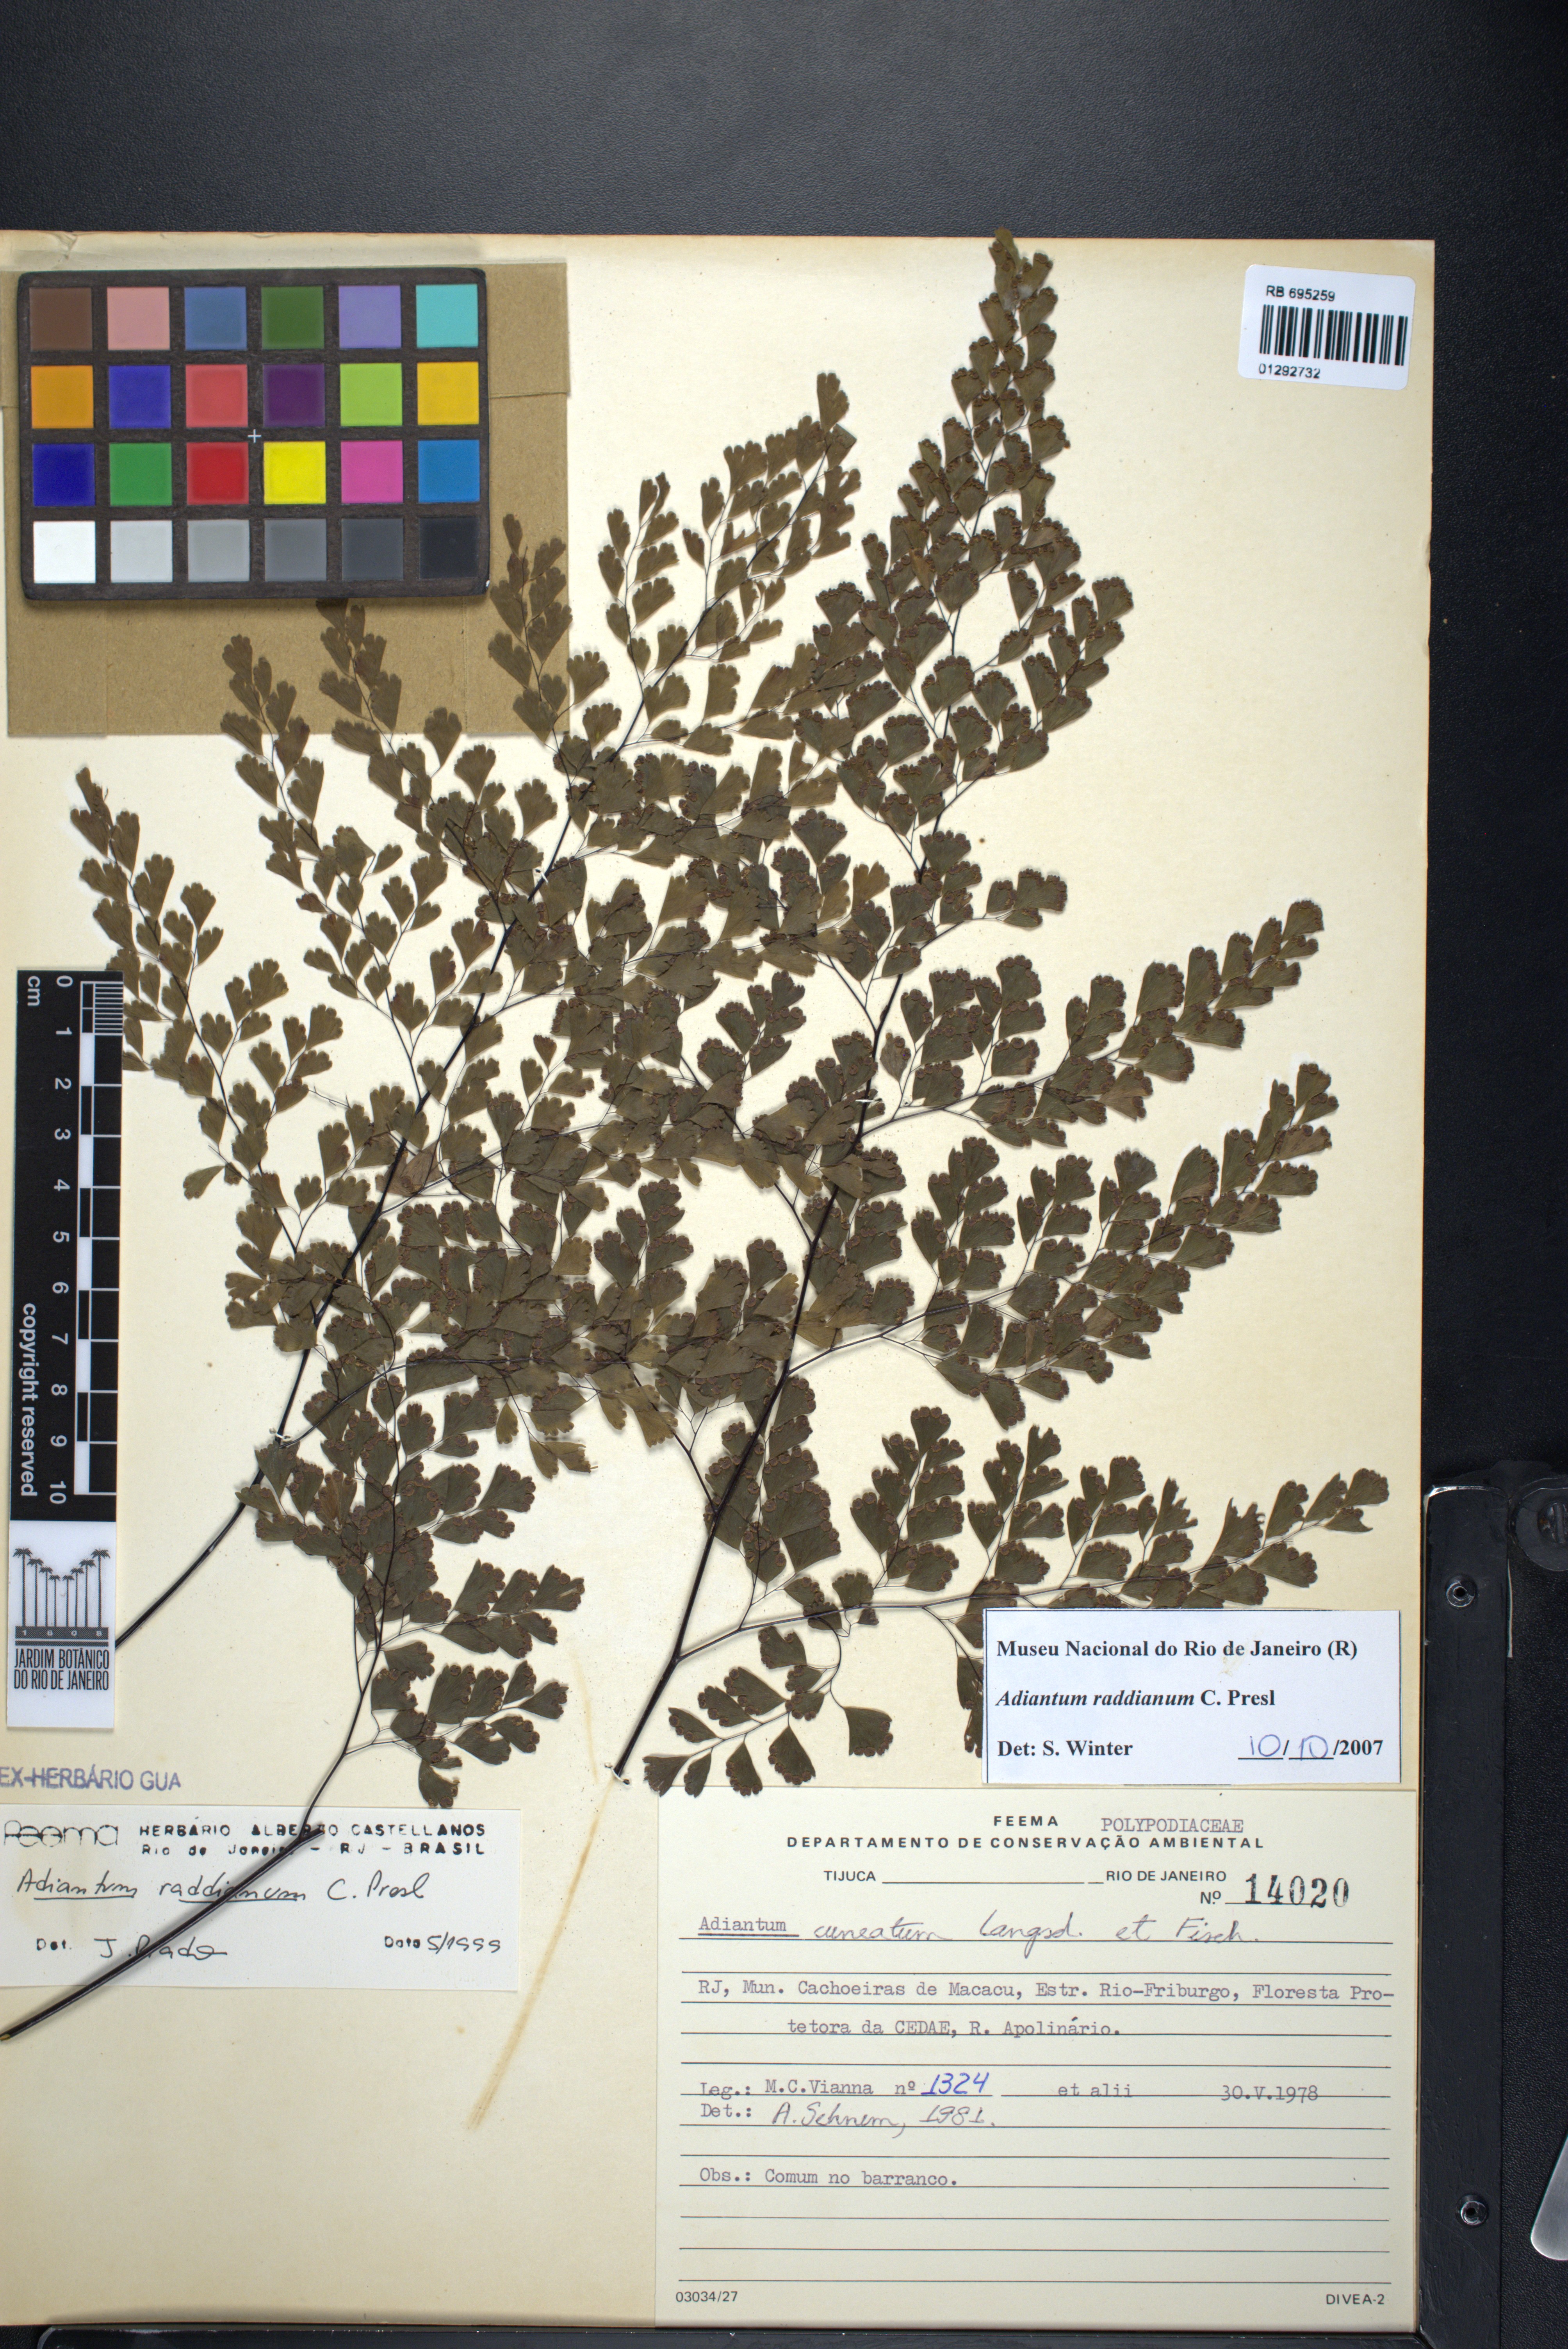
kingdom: Plantae
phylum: Tracheophyta
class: Polypodiopsida
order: Polypodiales
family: Pteridaceae
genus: Adiantum
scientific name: Adiantum raddianum
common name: Delta maidenhair fern
